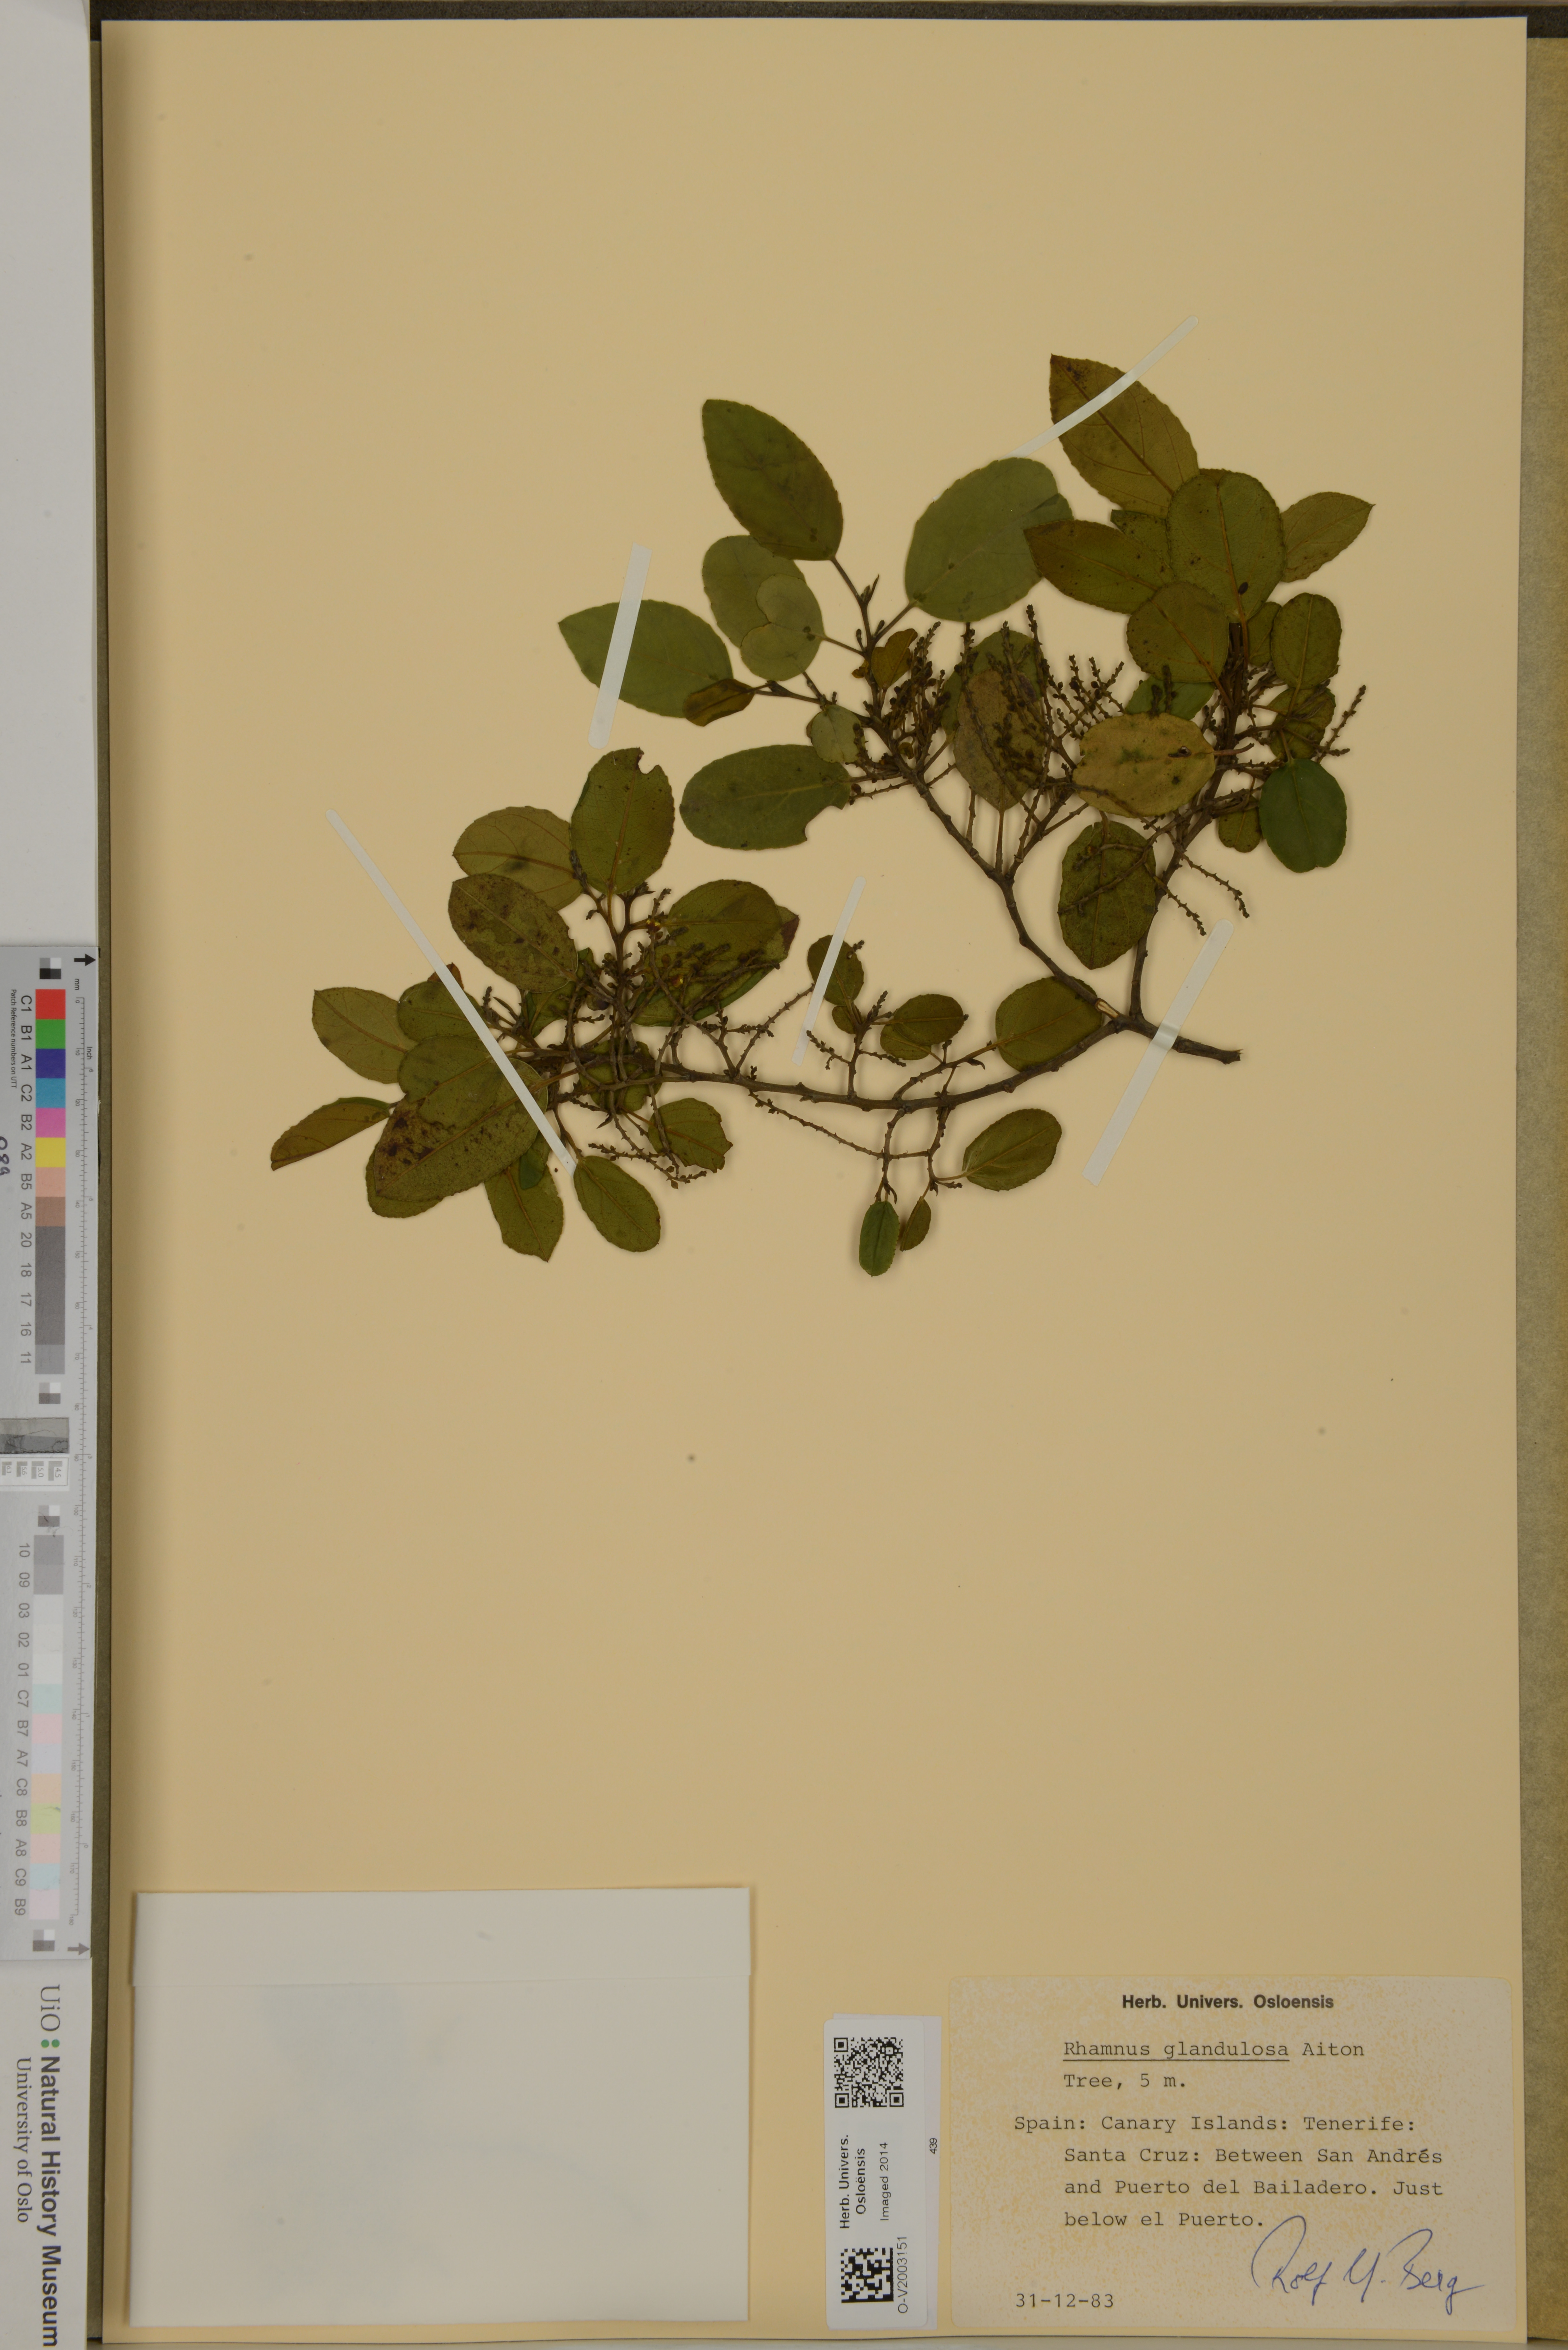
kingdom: Plantae
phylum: Tracheophyta
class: Magnoliopsida
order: Rosales
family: Rhamnaceae
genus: Rhamnus
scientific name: Rhamnus glandulosa
